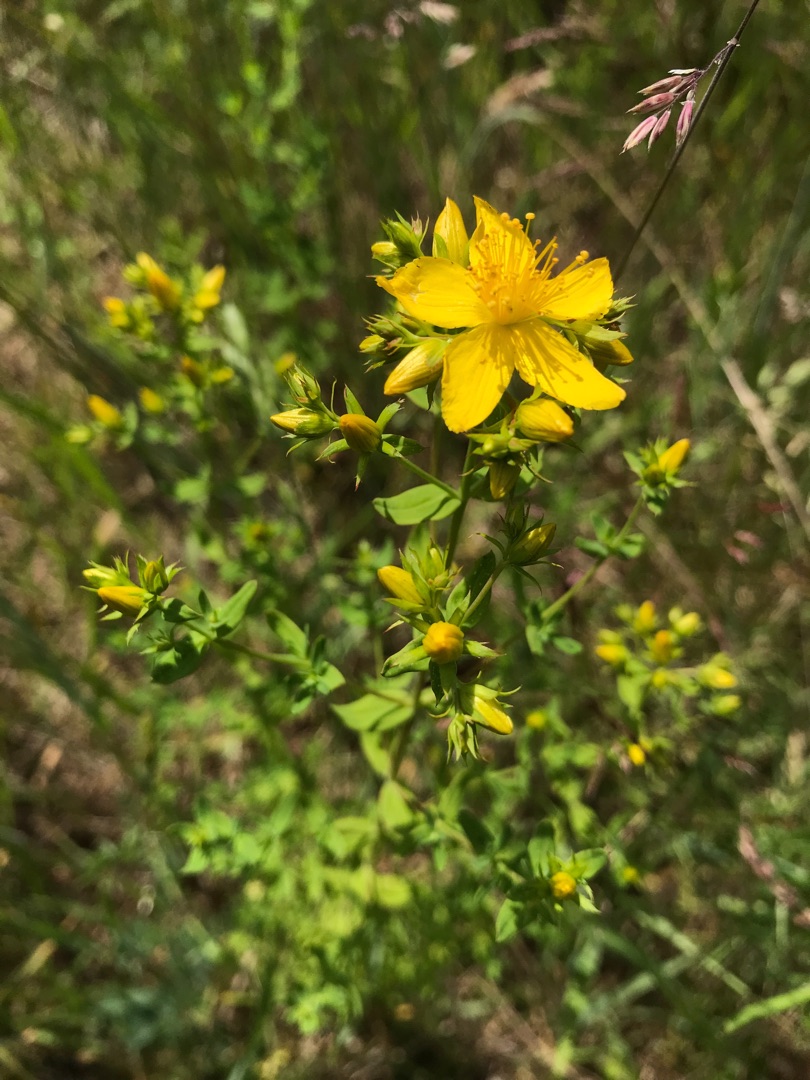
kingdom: Plantae
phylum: Tracheophyta
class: Magnoliopsida
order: Malpighiales
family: Hypericaceae
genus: Hypericum
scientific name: Hypericum perforatum
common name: Prikbladet perikon
